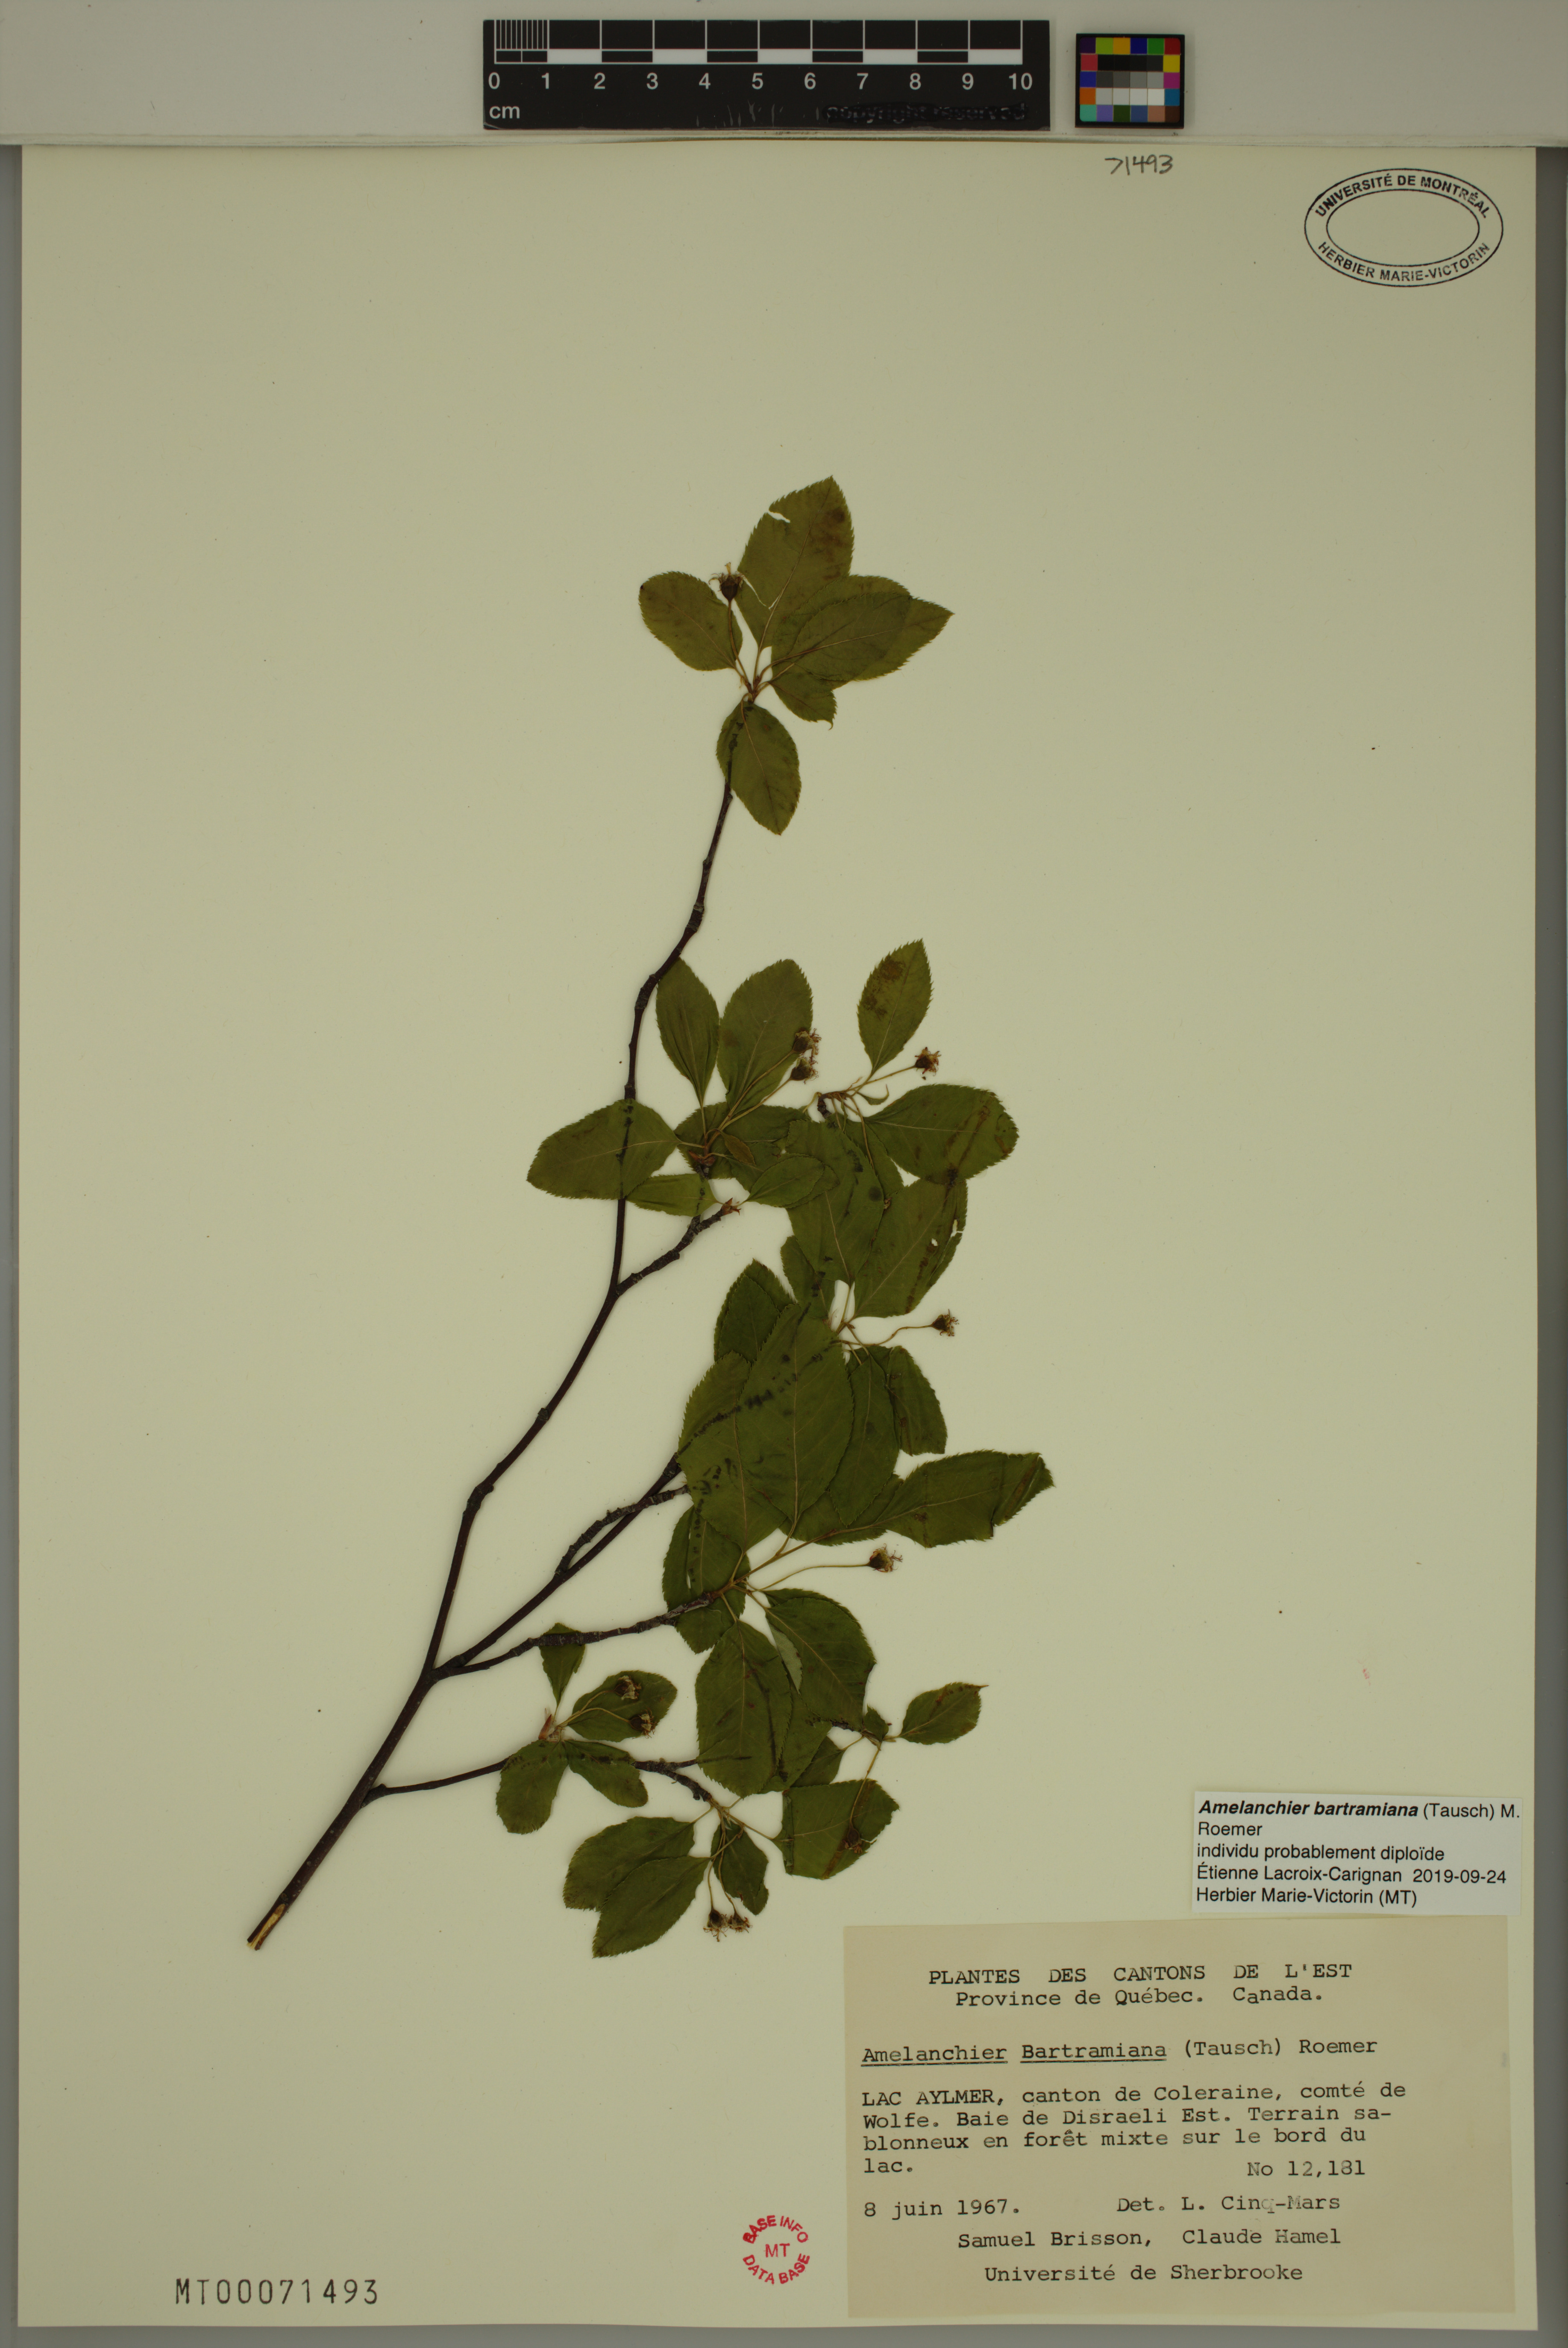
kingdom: Plantae
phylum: Tracheophyta
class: Magnoliopsida
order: Rosales
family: Rosaceae
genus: Amelanchier
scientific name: Amelanchier bartramiana
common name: Mountain serviceberry
